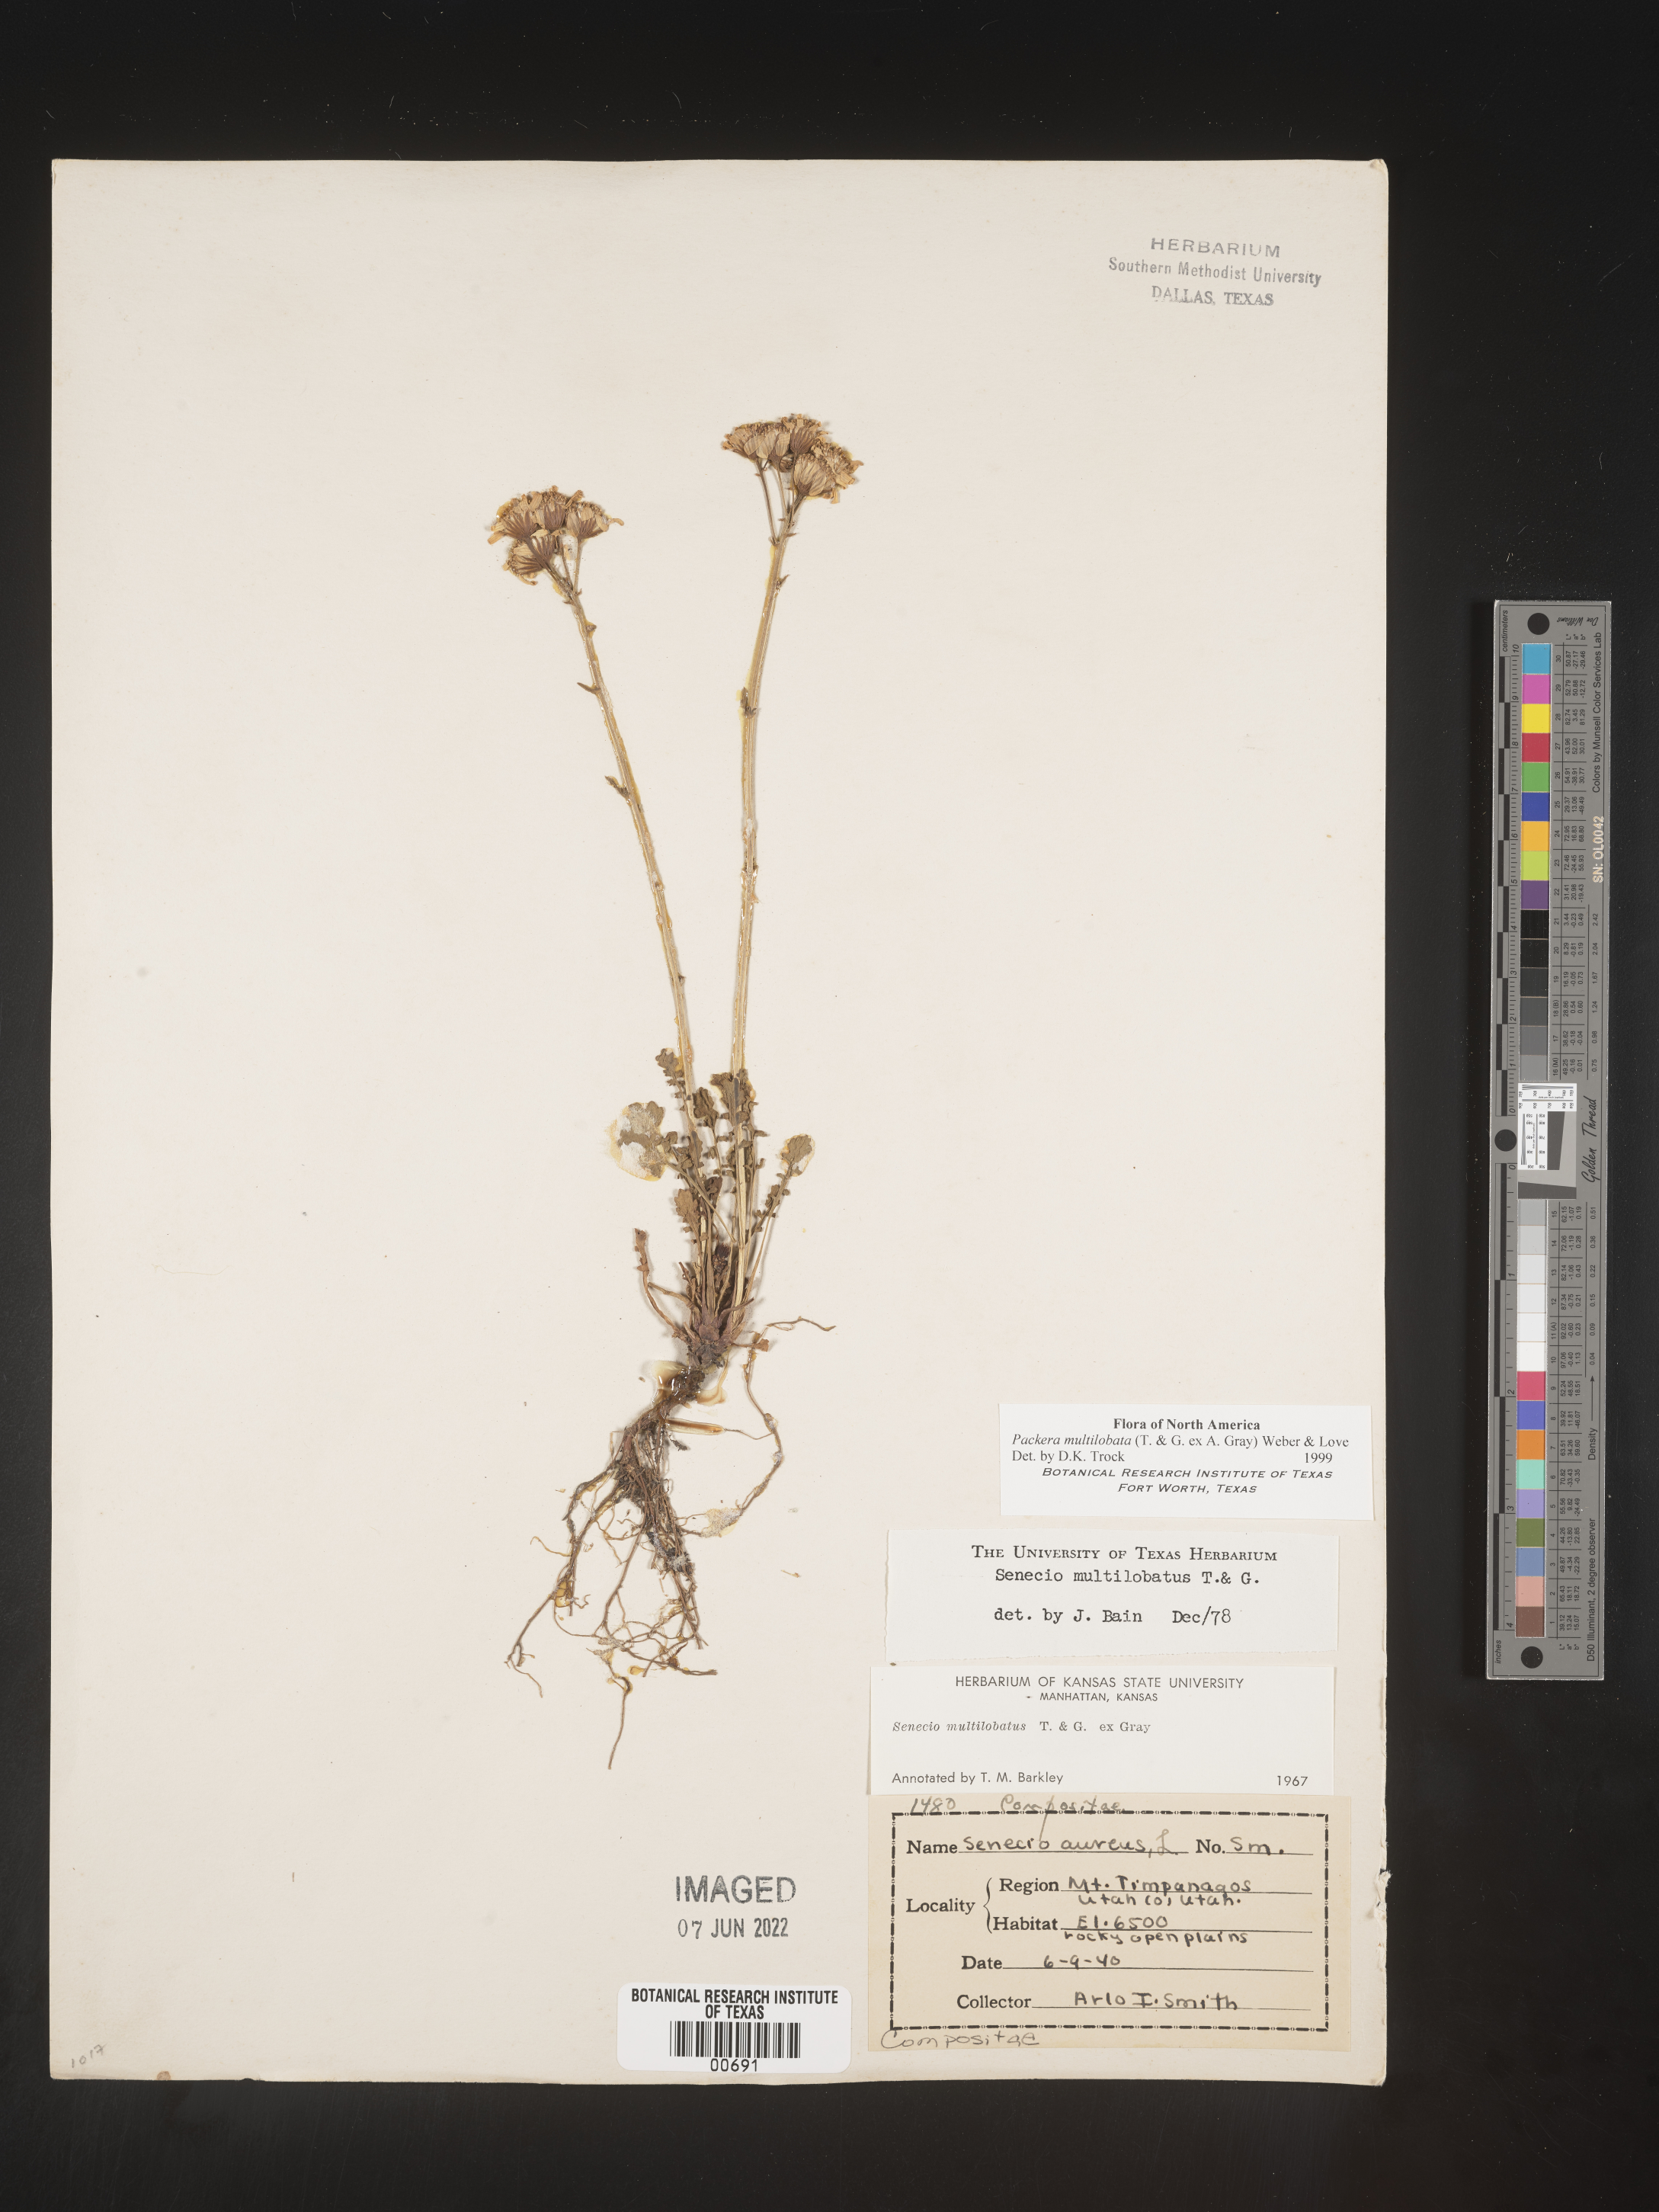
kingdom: Plantae
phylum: Tracheophyta
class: Magnoliopsida
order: Asterales
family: Asteraceae
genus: Packera
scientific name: Packera multilobata
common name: Lobe-leaf groundsel
